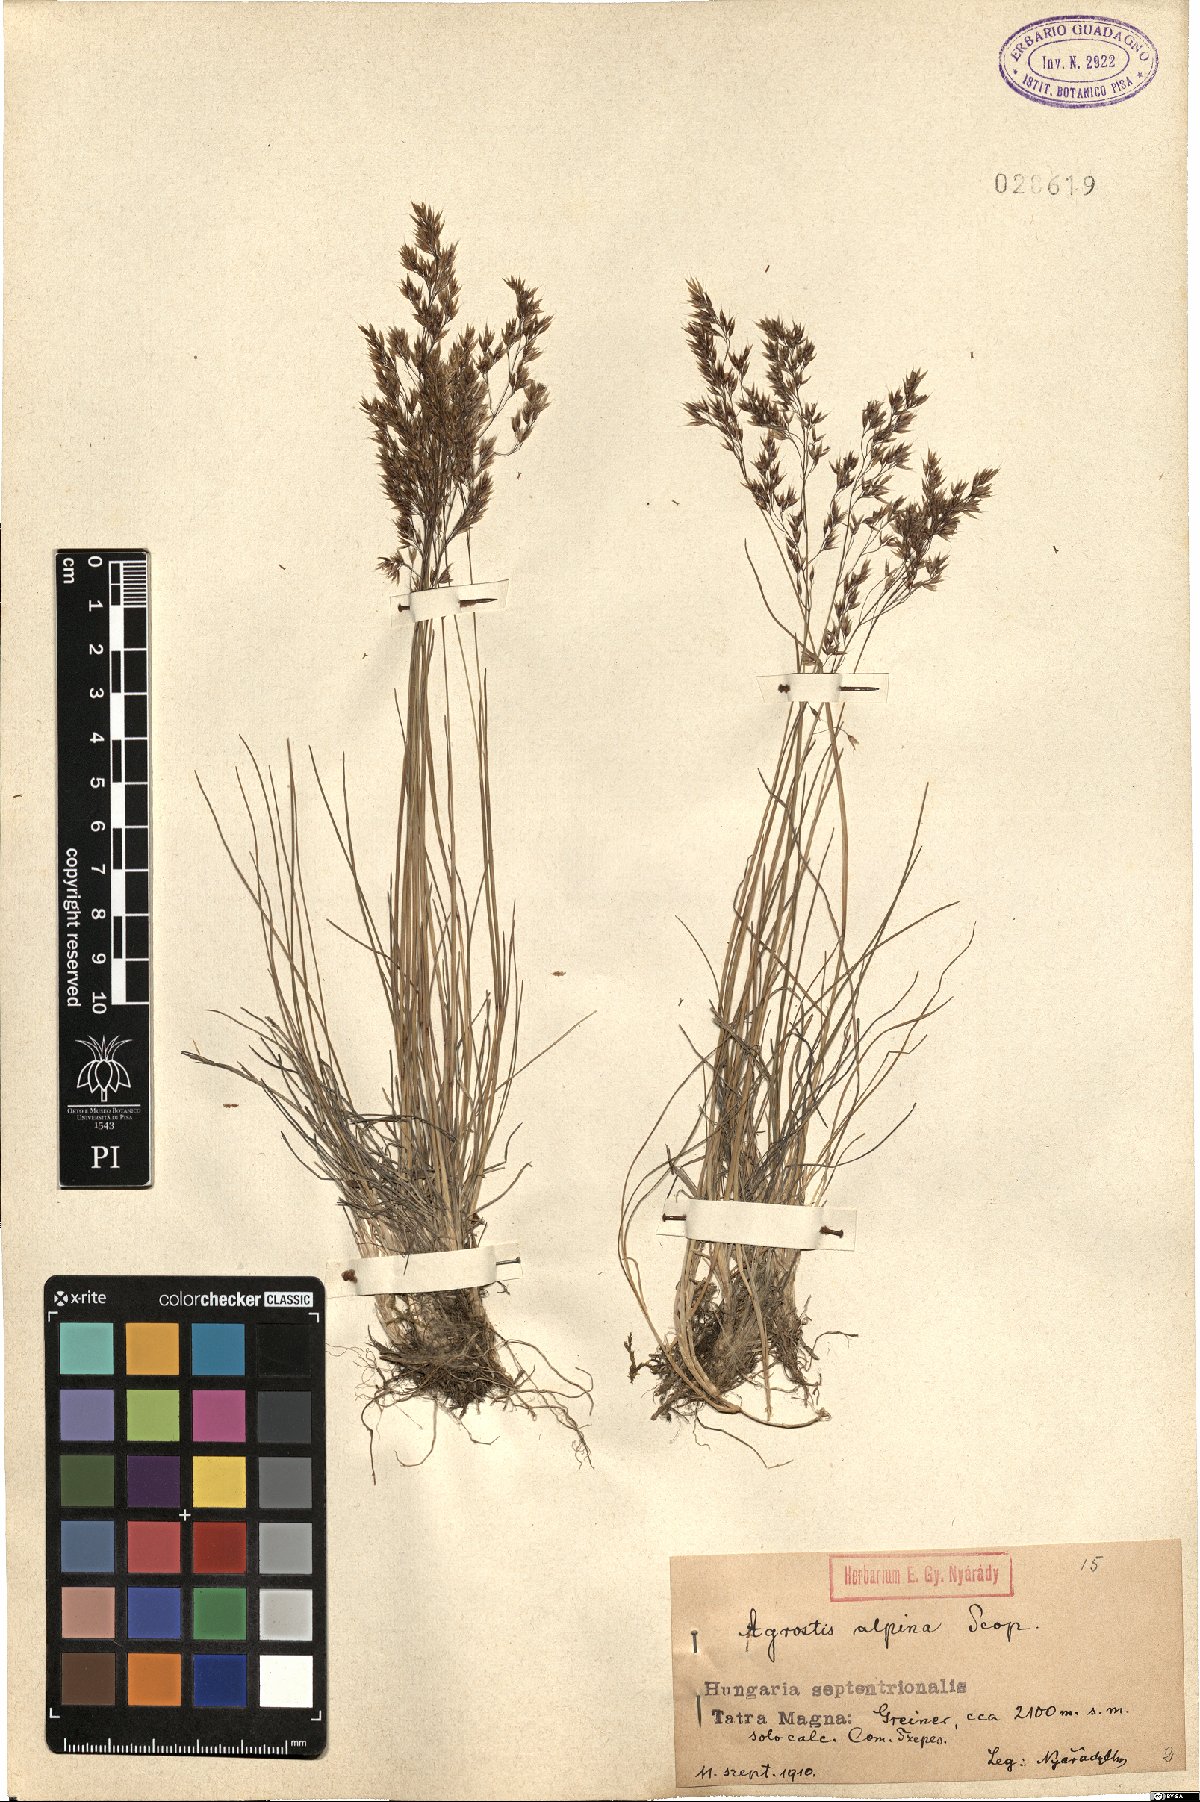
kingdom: Plantae
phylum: Tracheophyta
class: Liliopsida
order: Poales
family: Poaceae
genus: Alpagrostis
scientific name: Alpagrostis alpina
